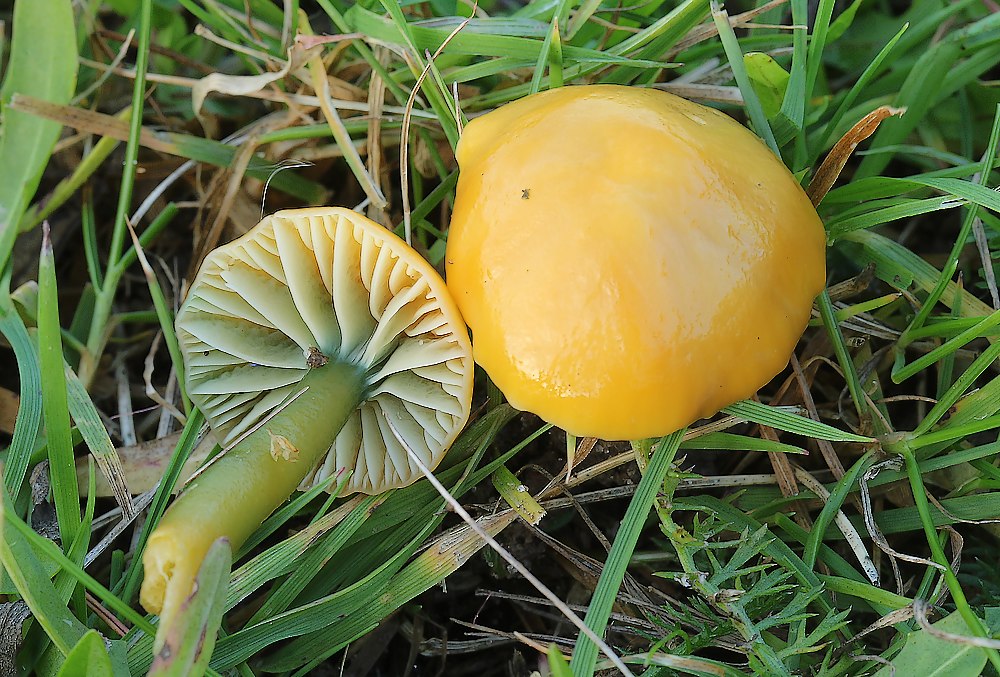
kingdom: Fungi
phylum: Basidiomycota
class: Agaricomycetes
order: Agaricales
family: Hygrophoraceae
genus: Gliophorus
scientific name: Gliophorus psittacinus
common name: papegøje-vokshat
